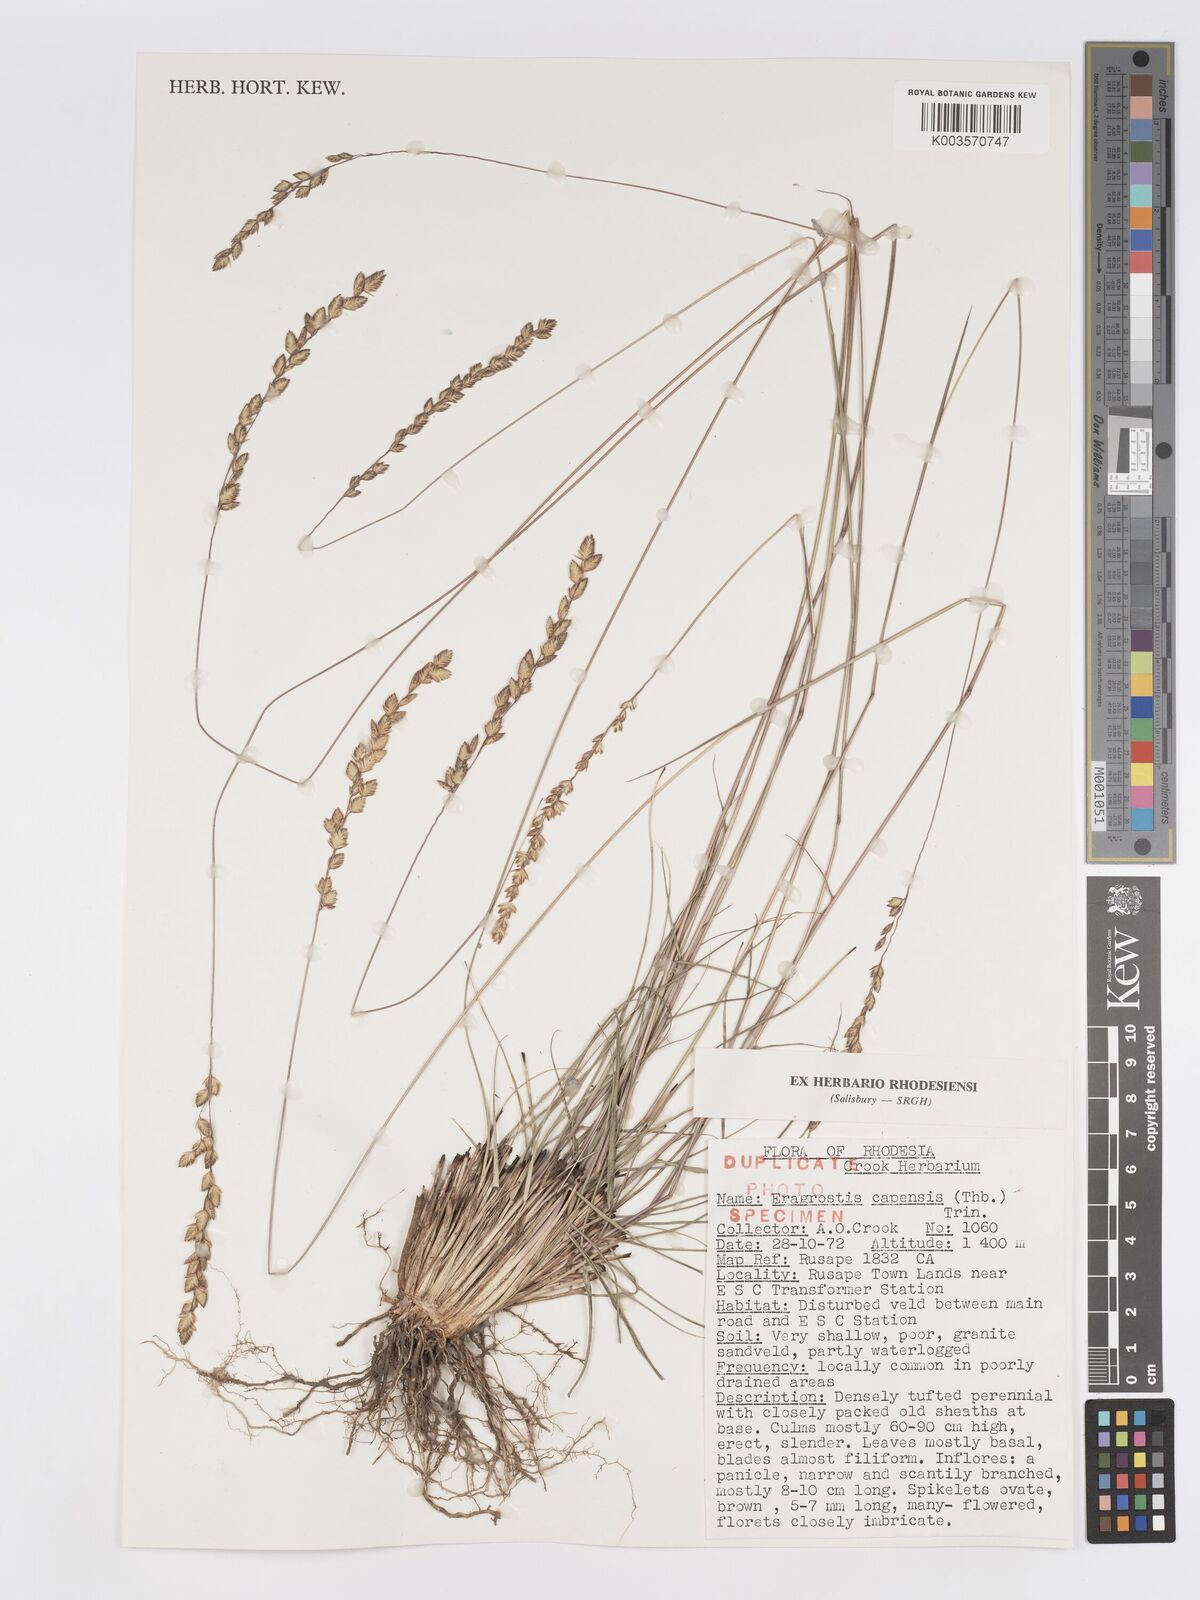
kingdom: Plantae
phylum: Tracheophyta
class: Liliopsida
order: Poales
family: Poaceae
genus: Eragrostis
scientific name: Eragrostis capensis
